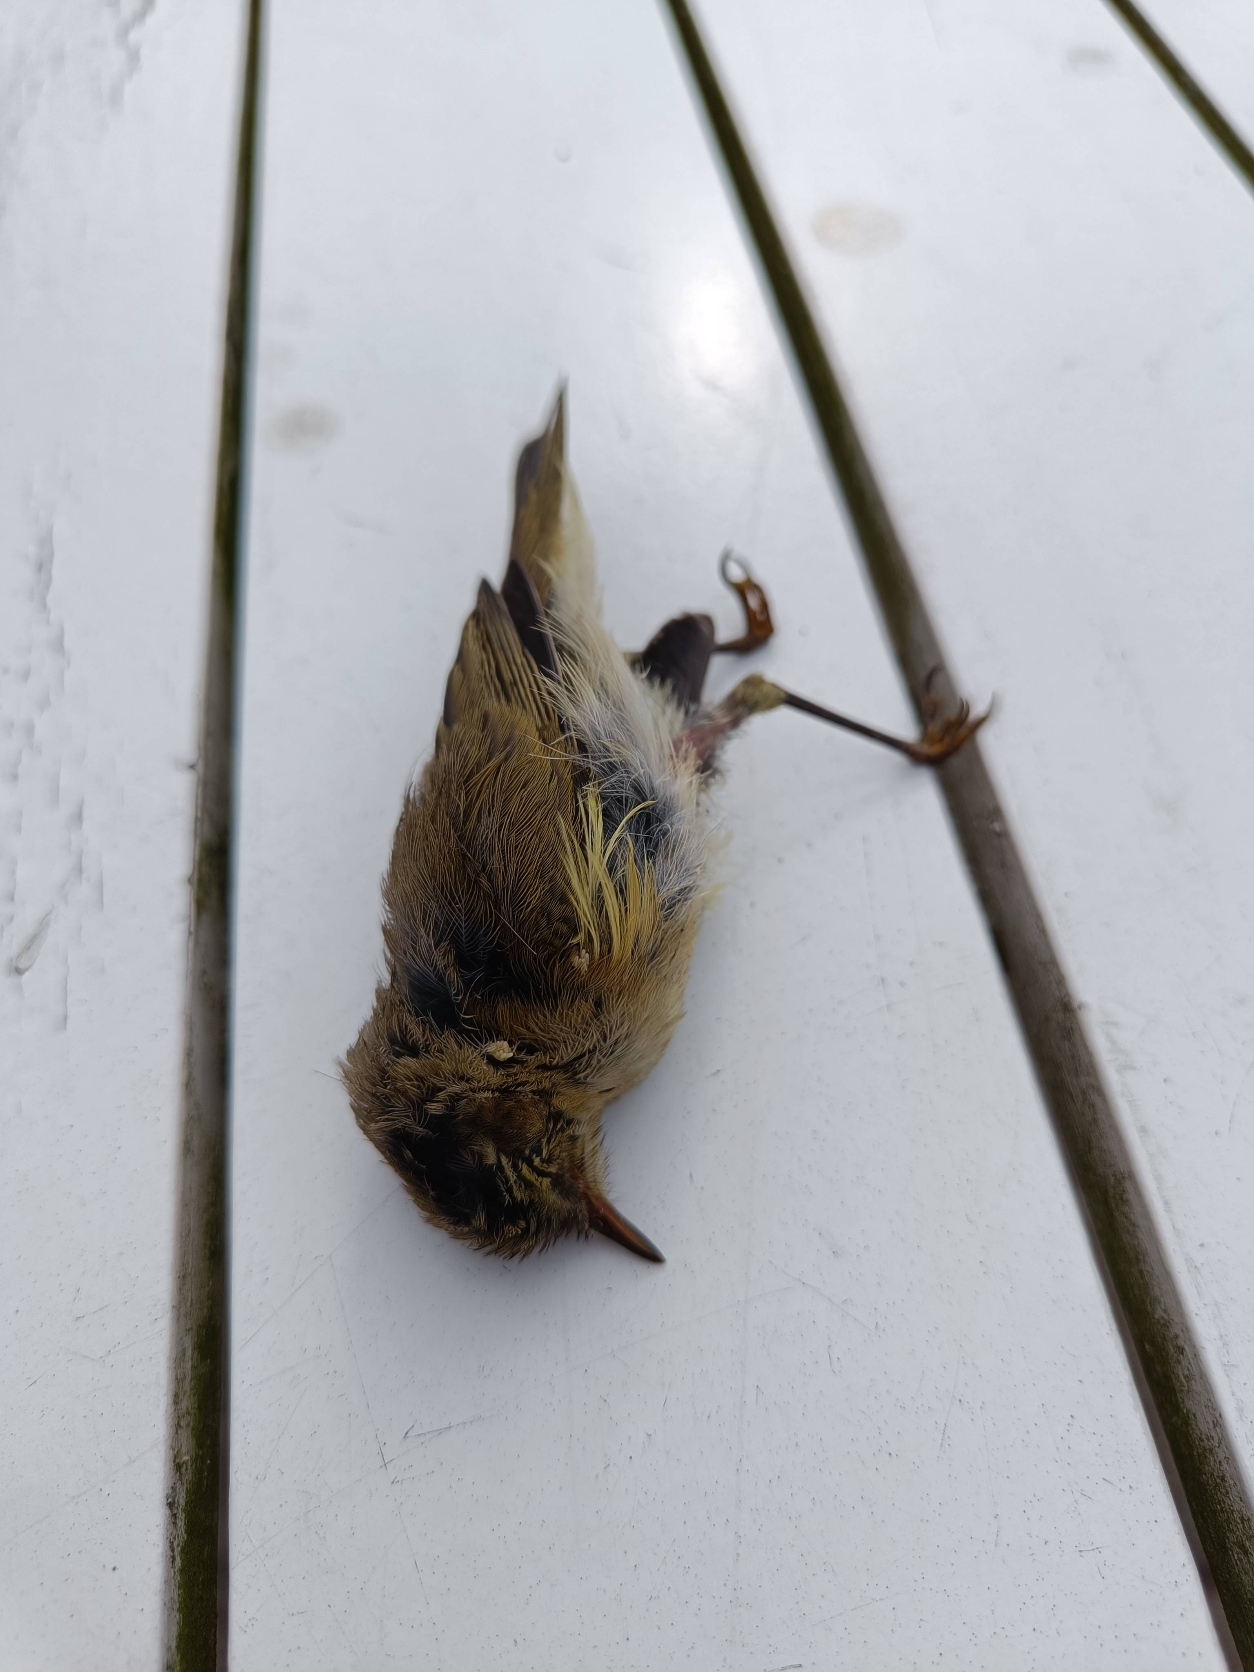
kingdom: Animalia
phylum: Chordata
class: Aves
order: Passeriformes
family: Phylloscopidae
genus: Phylloscopus
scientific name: Phylloscopus collybita
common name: Gransanger
